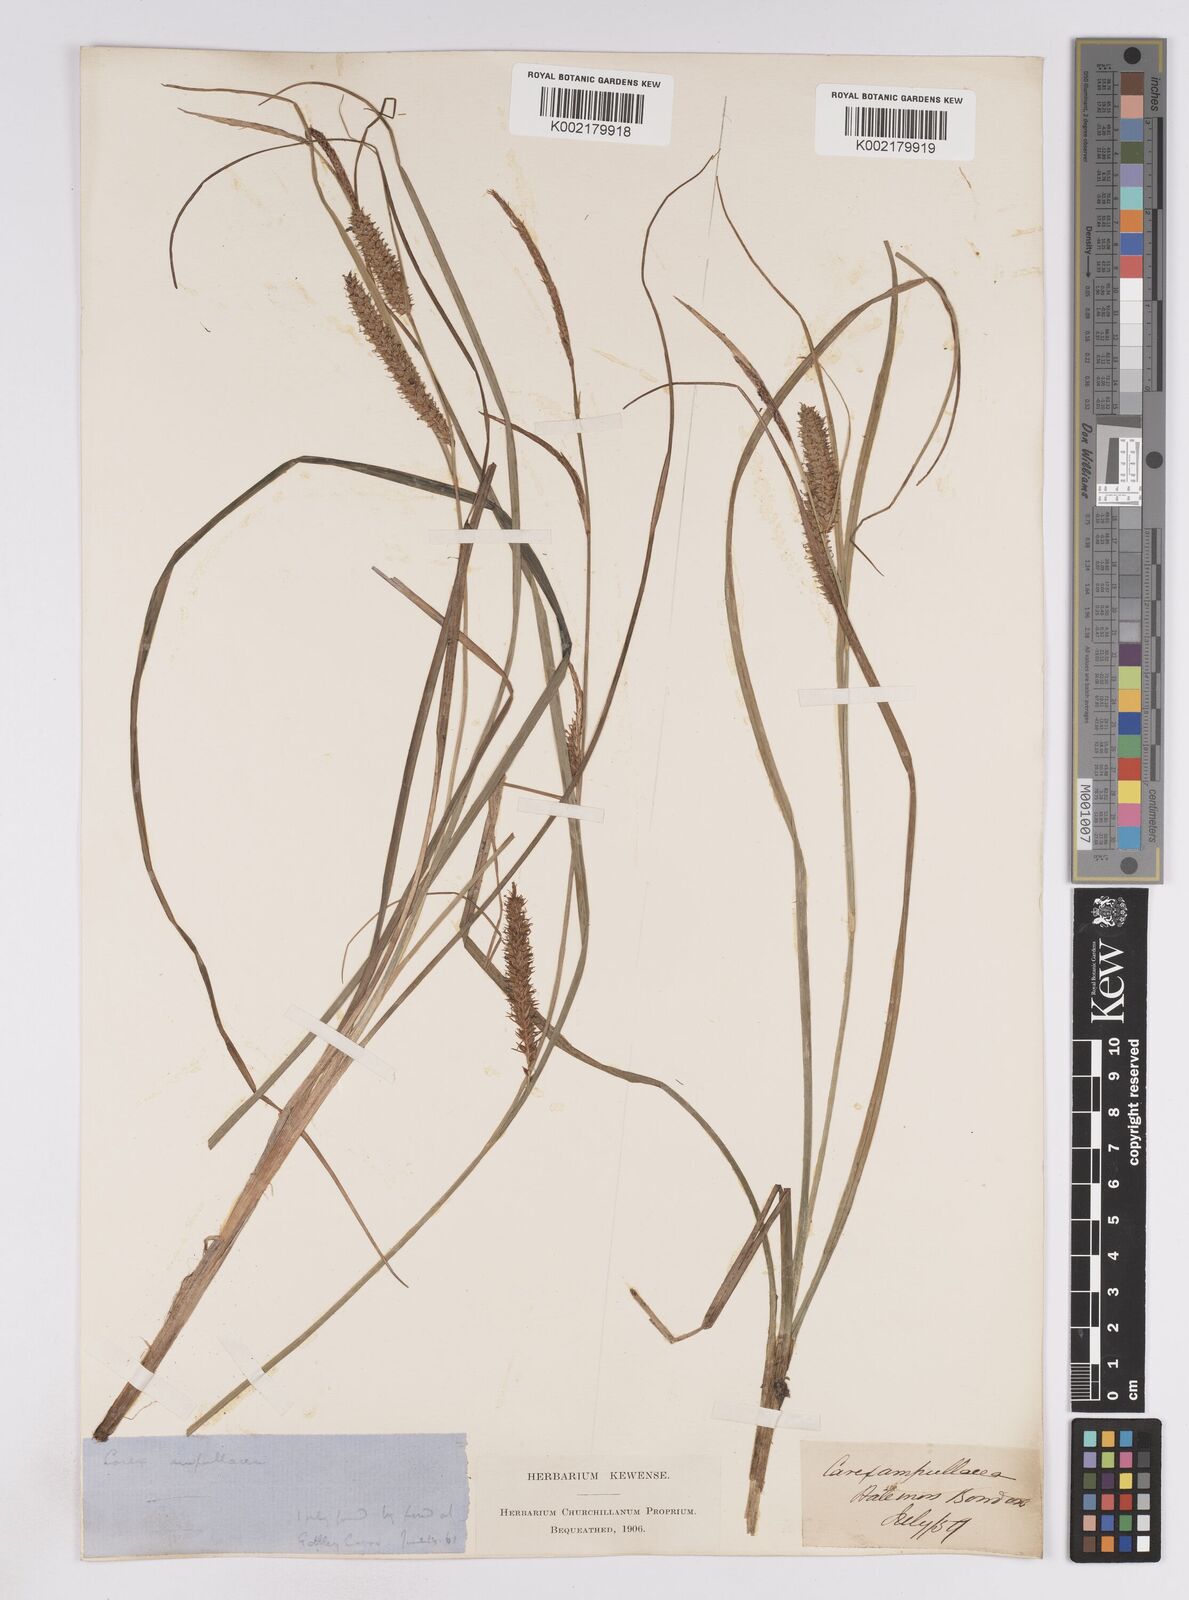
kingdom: Plantae
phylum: Tracheophyta
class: Liliopsida
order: Poales
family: Cyperaceae
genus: Carex
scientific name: Carex rostrata
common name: Bottle sedge
